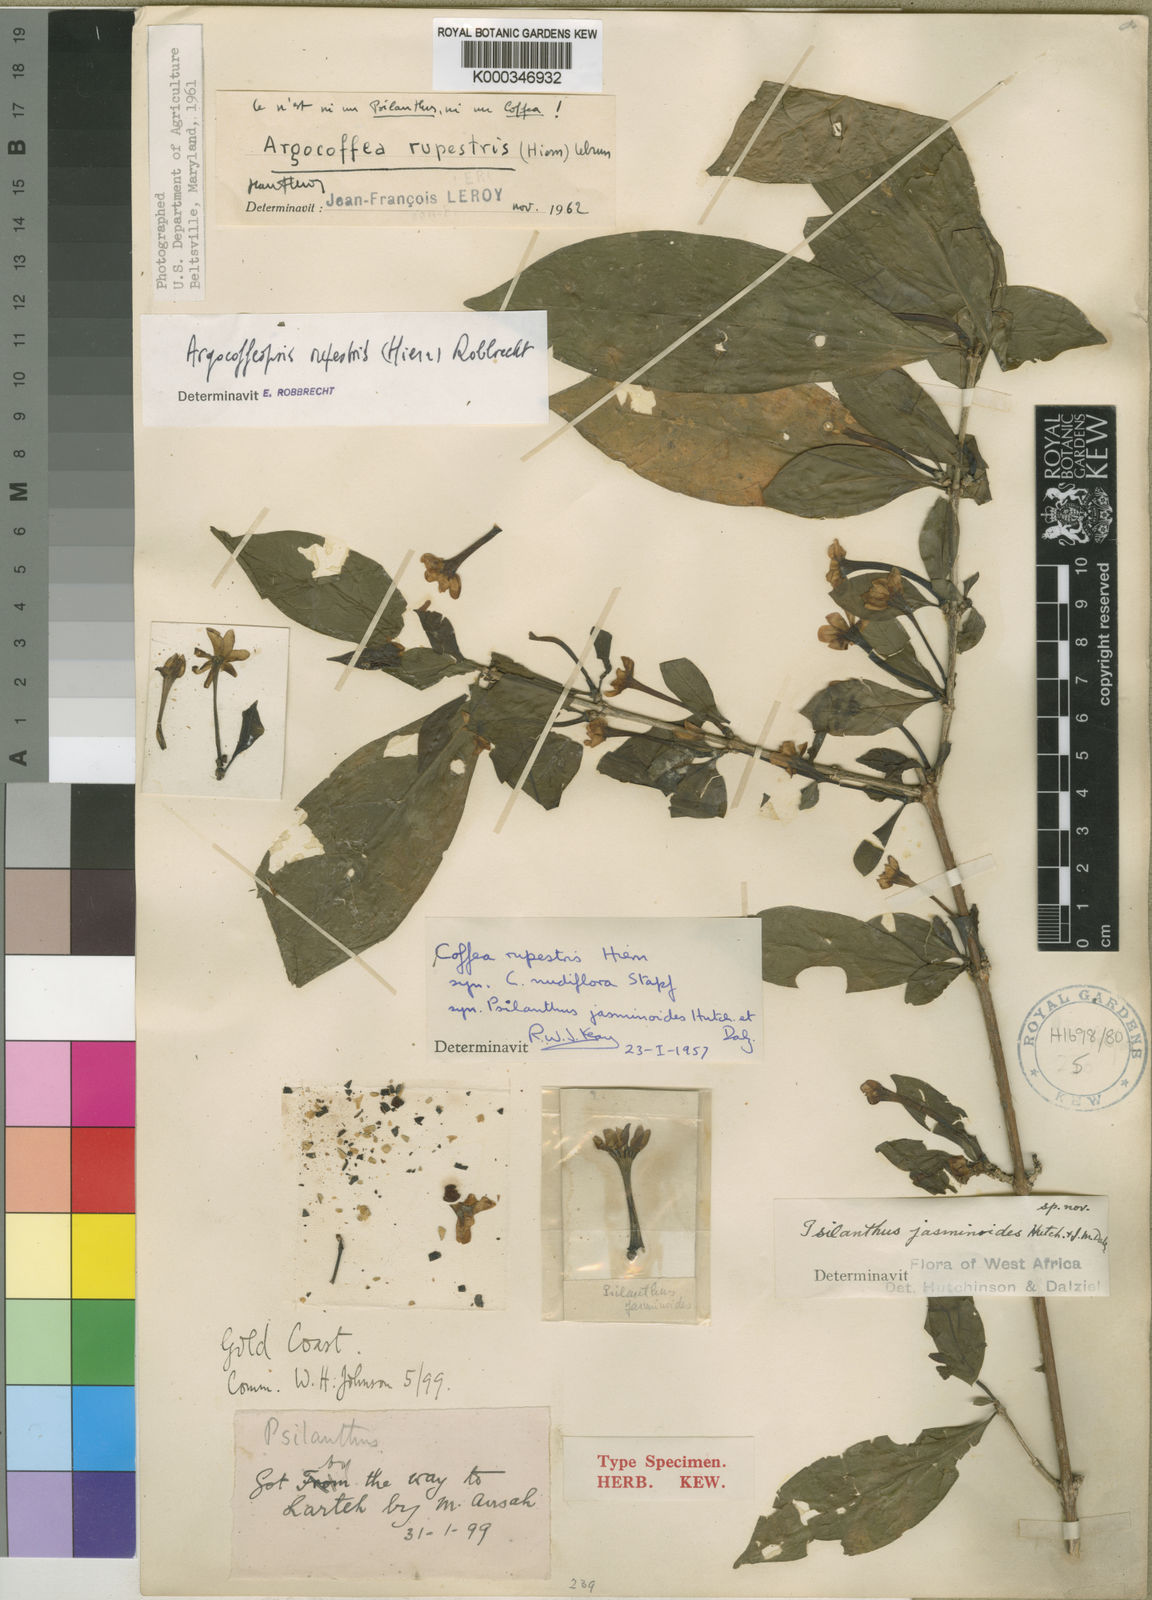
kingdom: Plantae
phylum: Tracheophyta
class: Magnoliopsida
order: Gentianales
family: Rubiaceae
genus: Argocoffeopsis
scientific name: Argocoffeopsis rupestris
